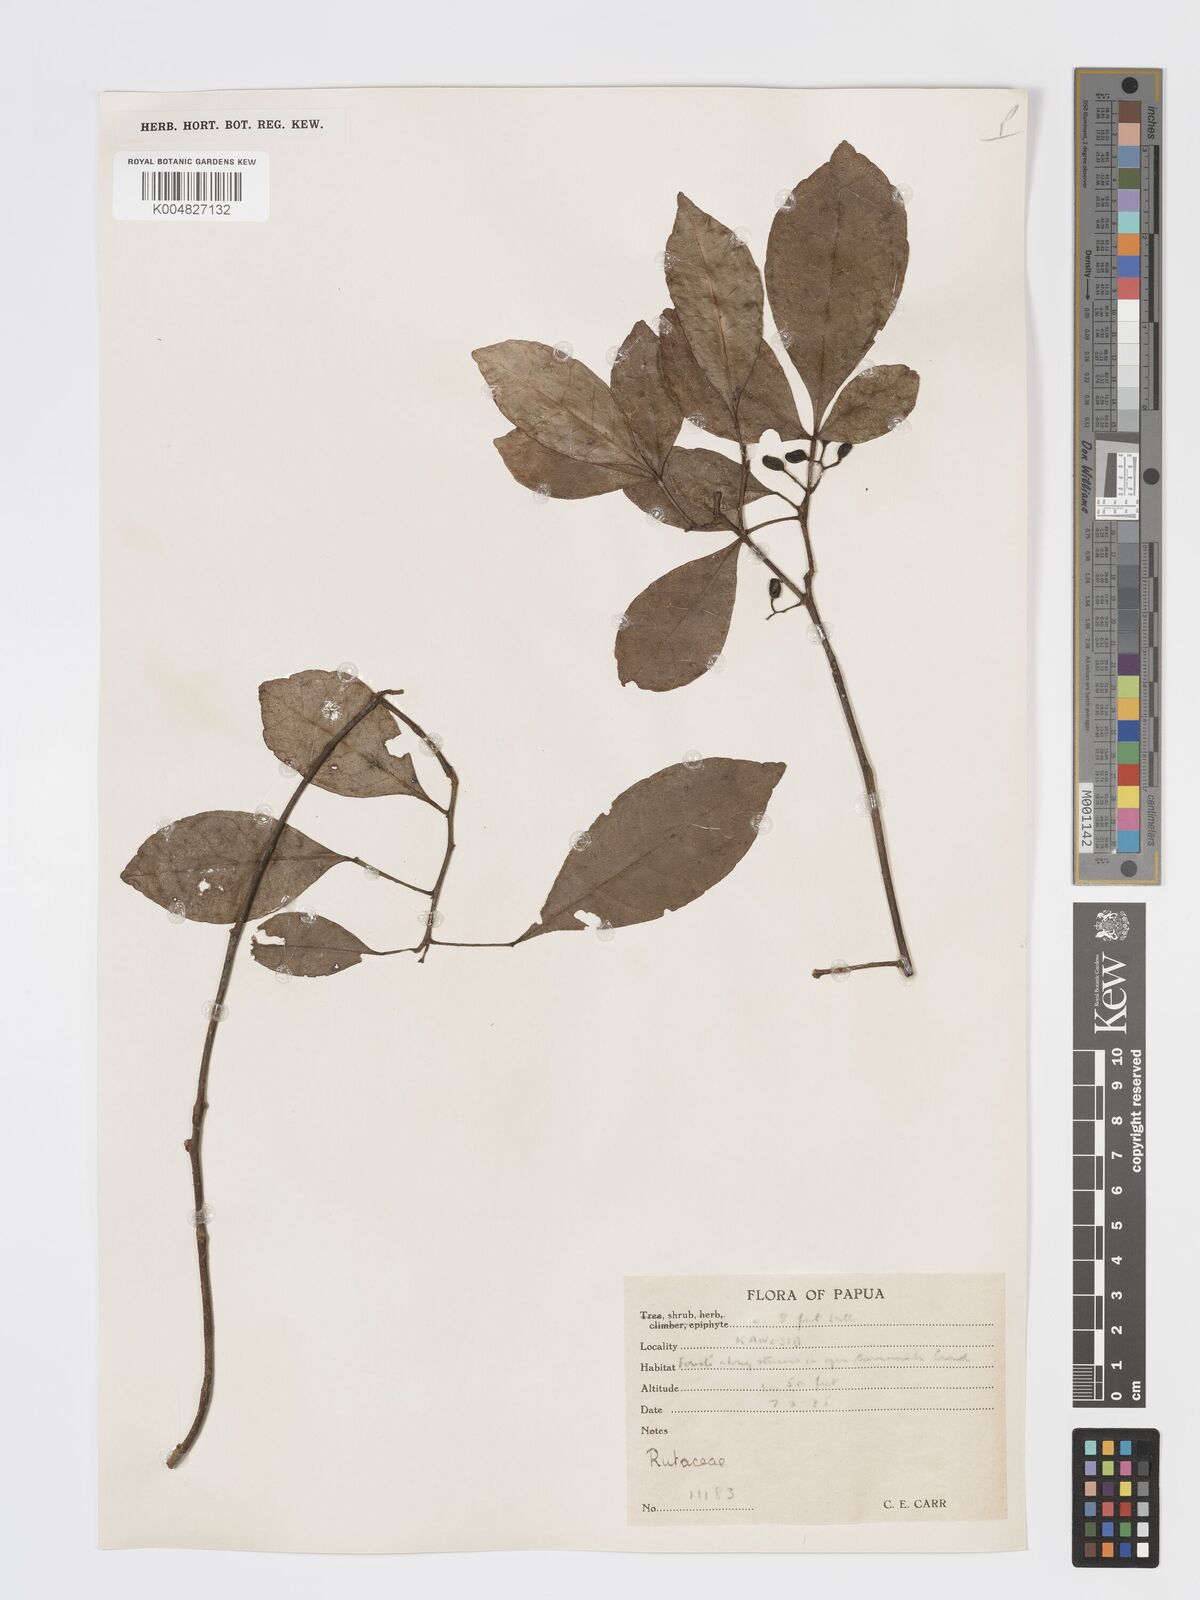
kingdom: Plantae
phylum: Tracheophyta
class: Magnoliopsida
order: Sapindales
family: Rutaceae
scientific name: Rutaceae
